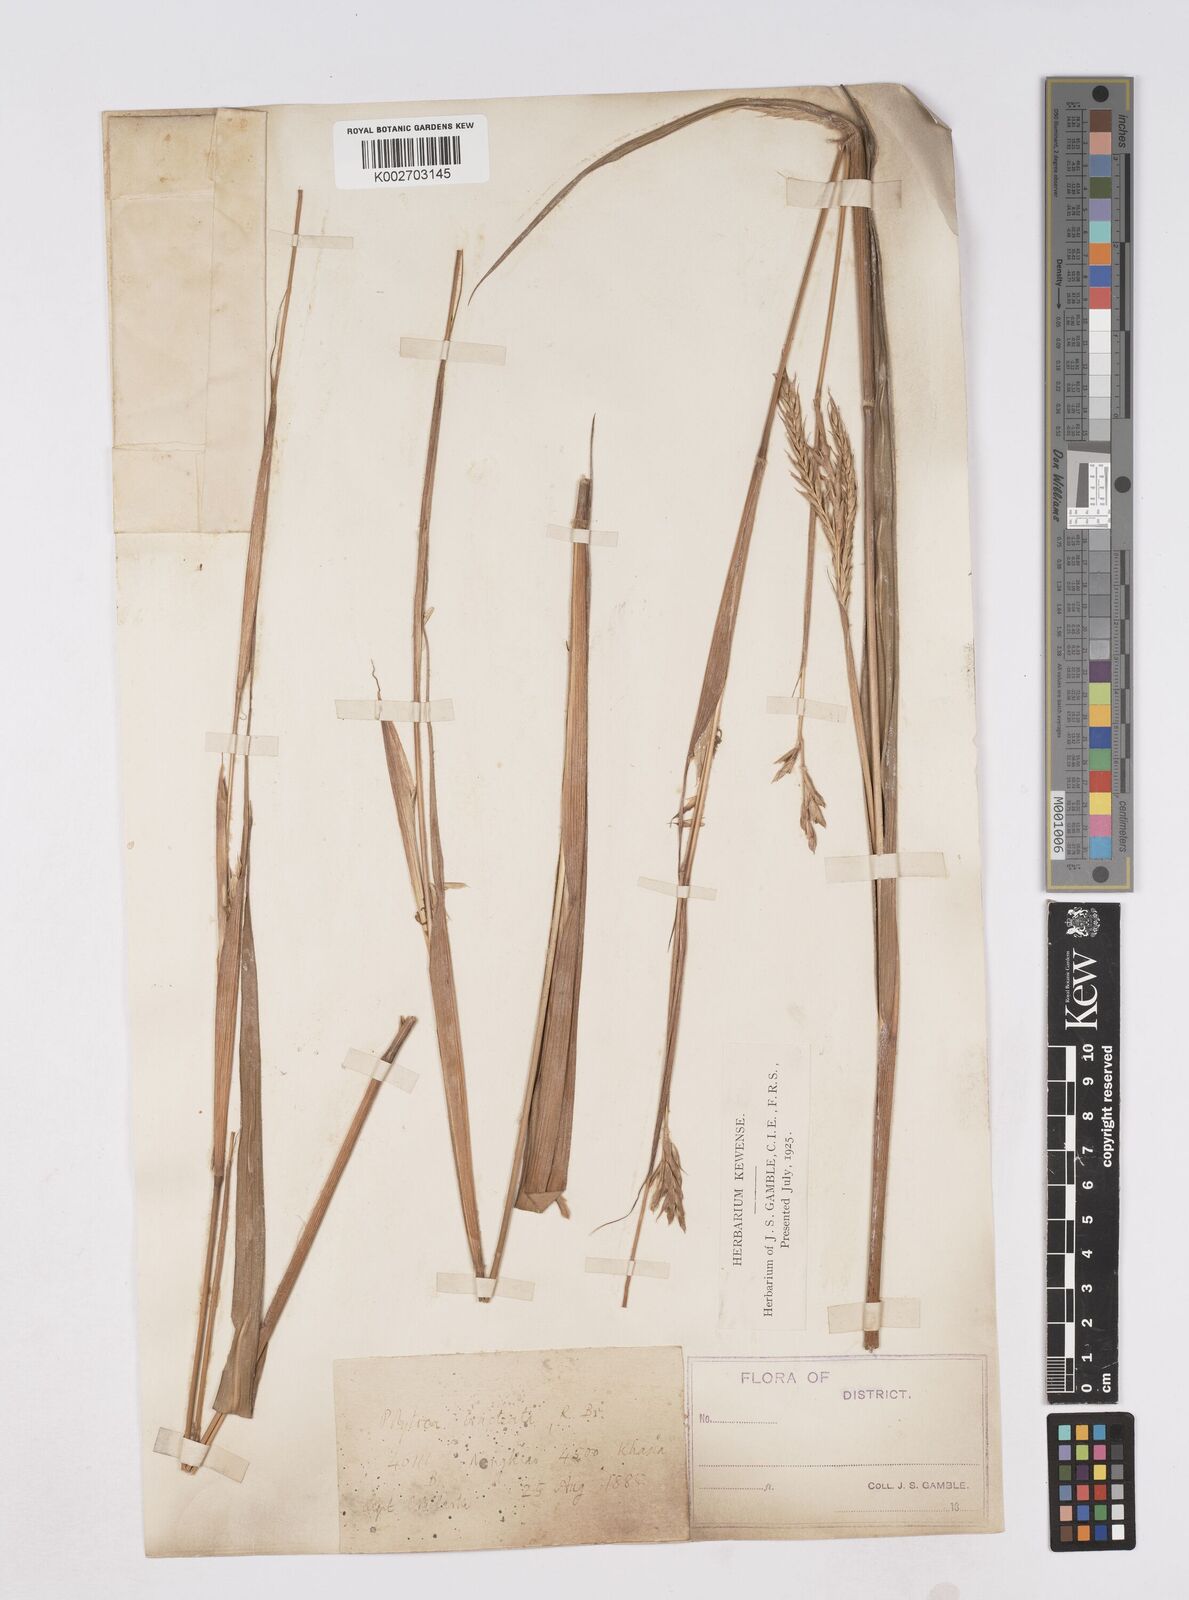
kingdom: Plantae
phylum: Tracheophyta
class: Liliopsida
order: Poales
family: Poaceae
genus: Polytoca
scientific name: Polytoca digitata
